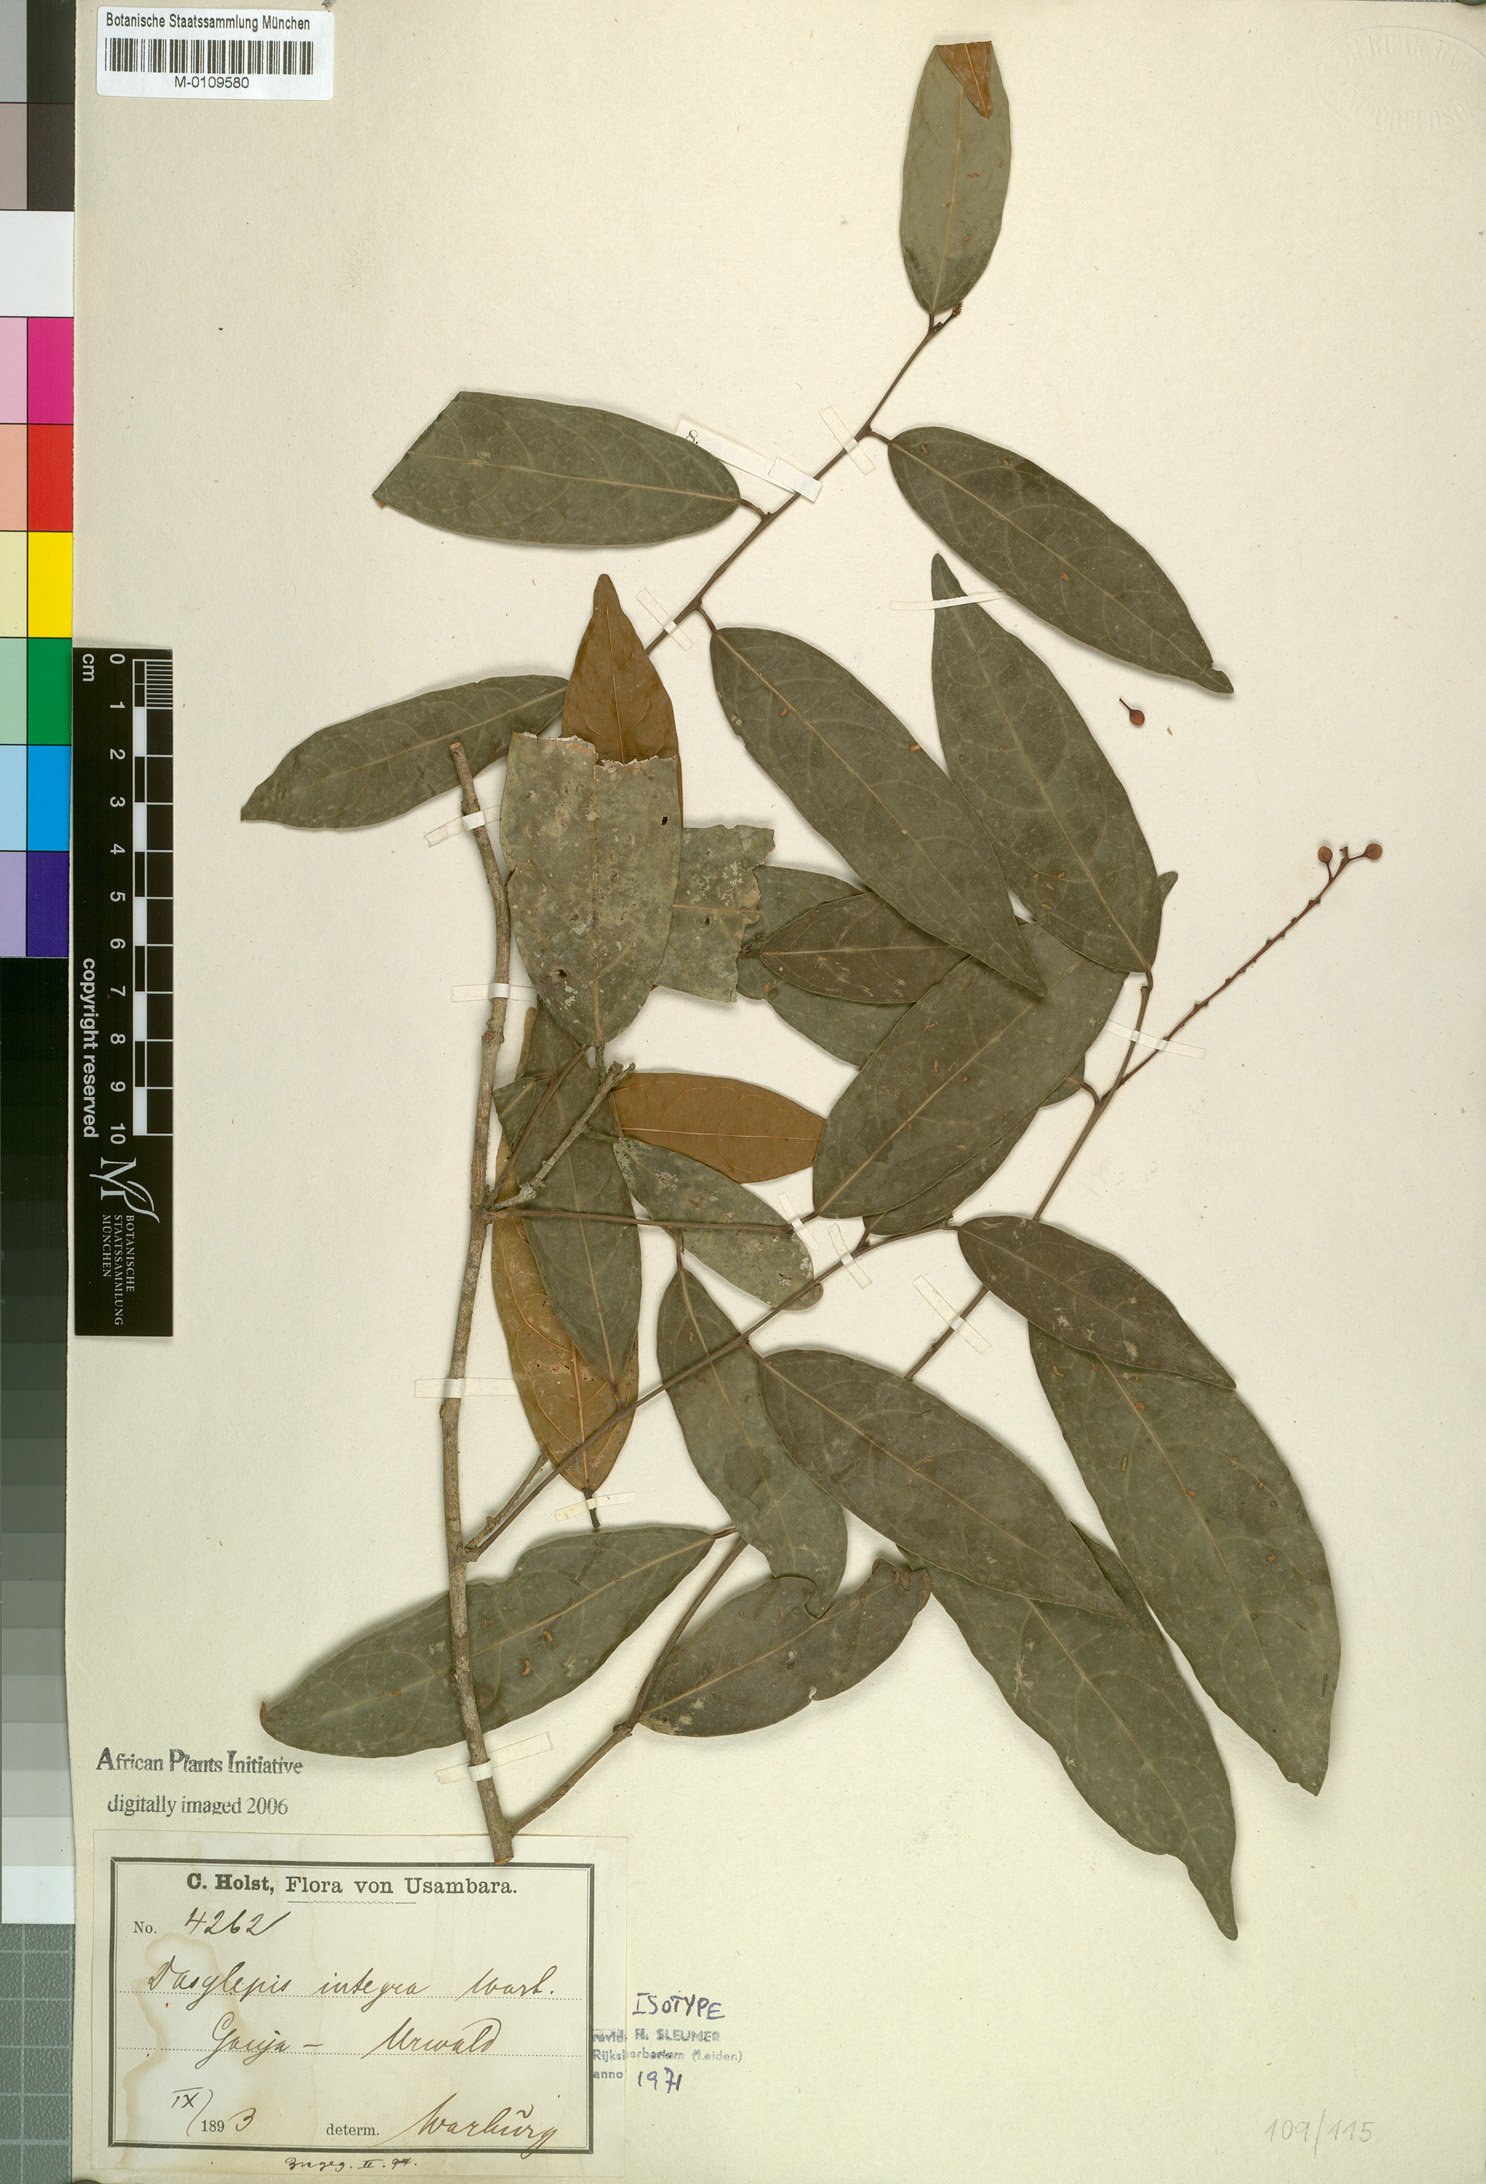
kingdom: Plantae
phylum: Tracheophyta
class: Magnoliopsida
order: Malpighiales
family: Achariaceae
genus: Dasylepis
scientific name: Dasylepis integra
